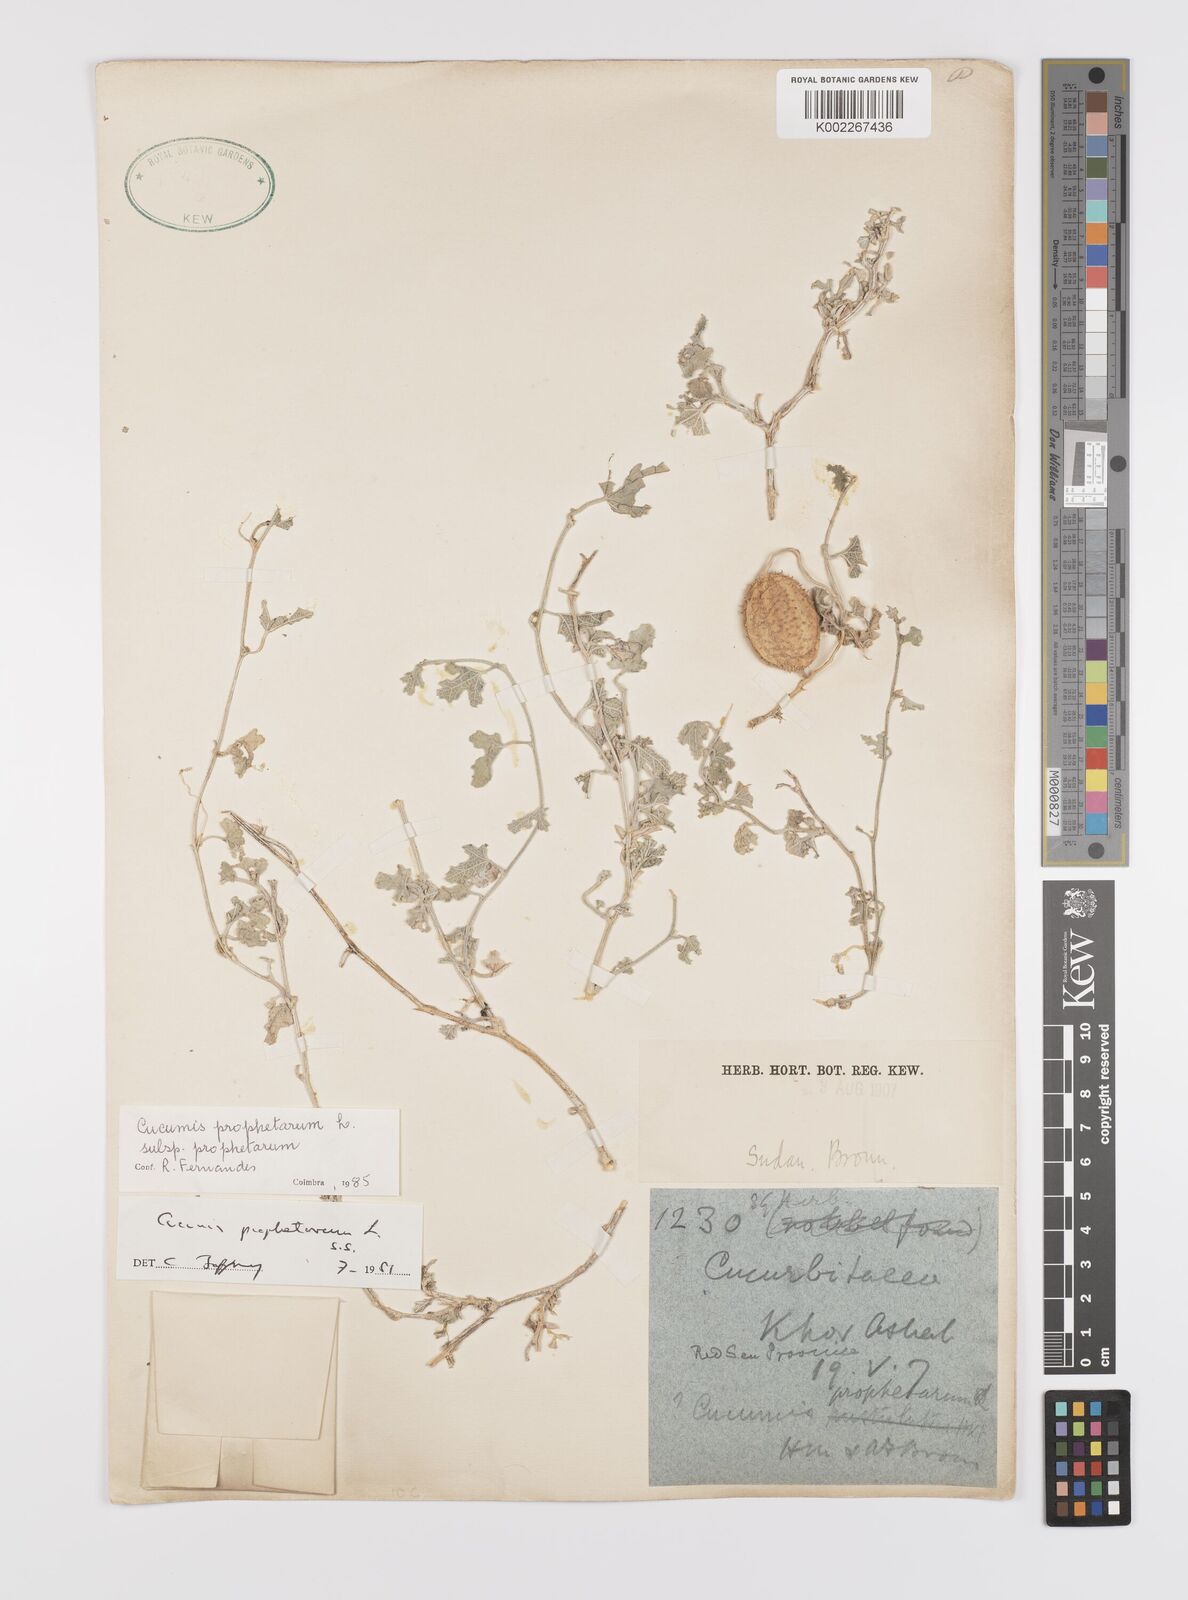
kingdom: Plantae
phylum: Tracheophyta
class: Magnoliopsida
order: Cucurbitales
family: Cucurbitaceae
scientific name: Cucurbitaceae
